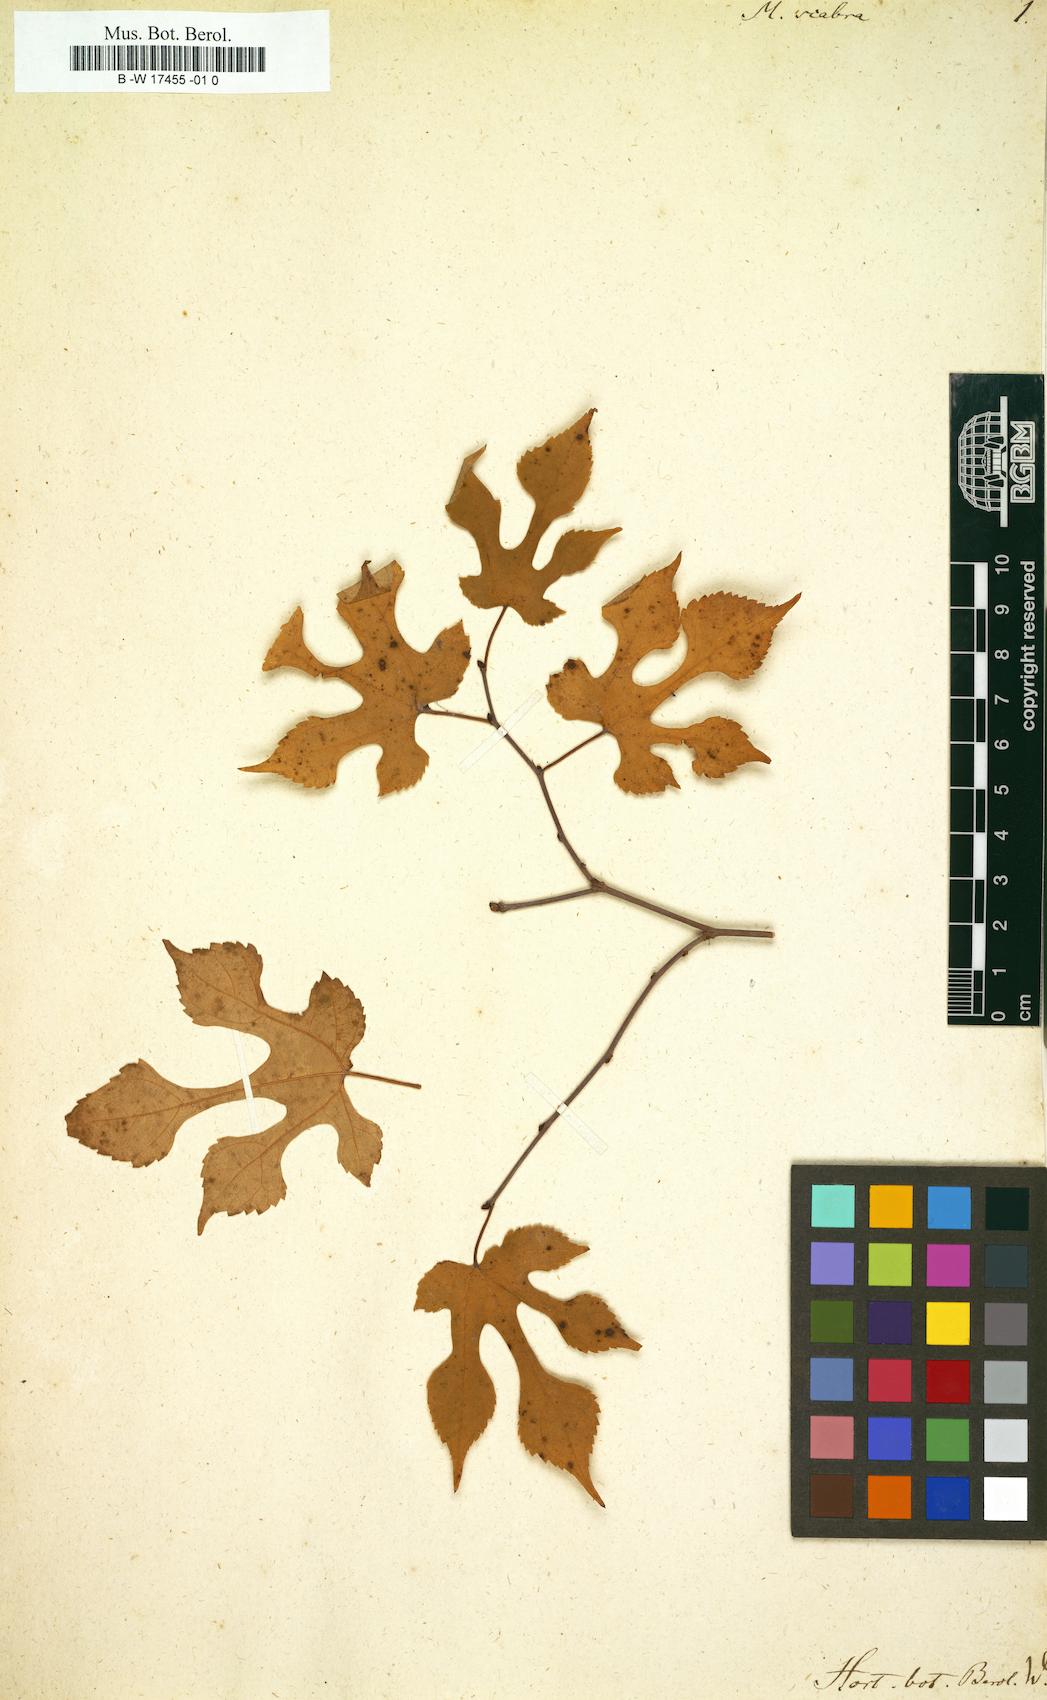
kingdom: Plantae
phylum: Tracheophyta
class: Magnoliopsida
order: Rosales
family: Moraceae
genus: Morus
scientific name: Morus
